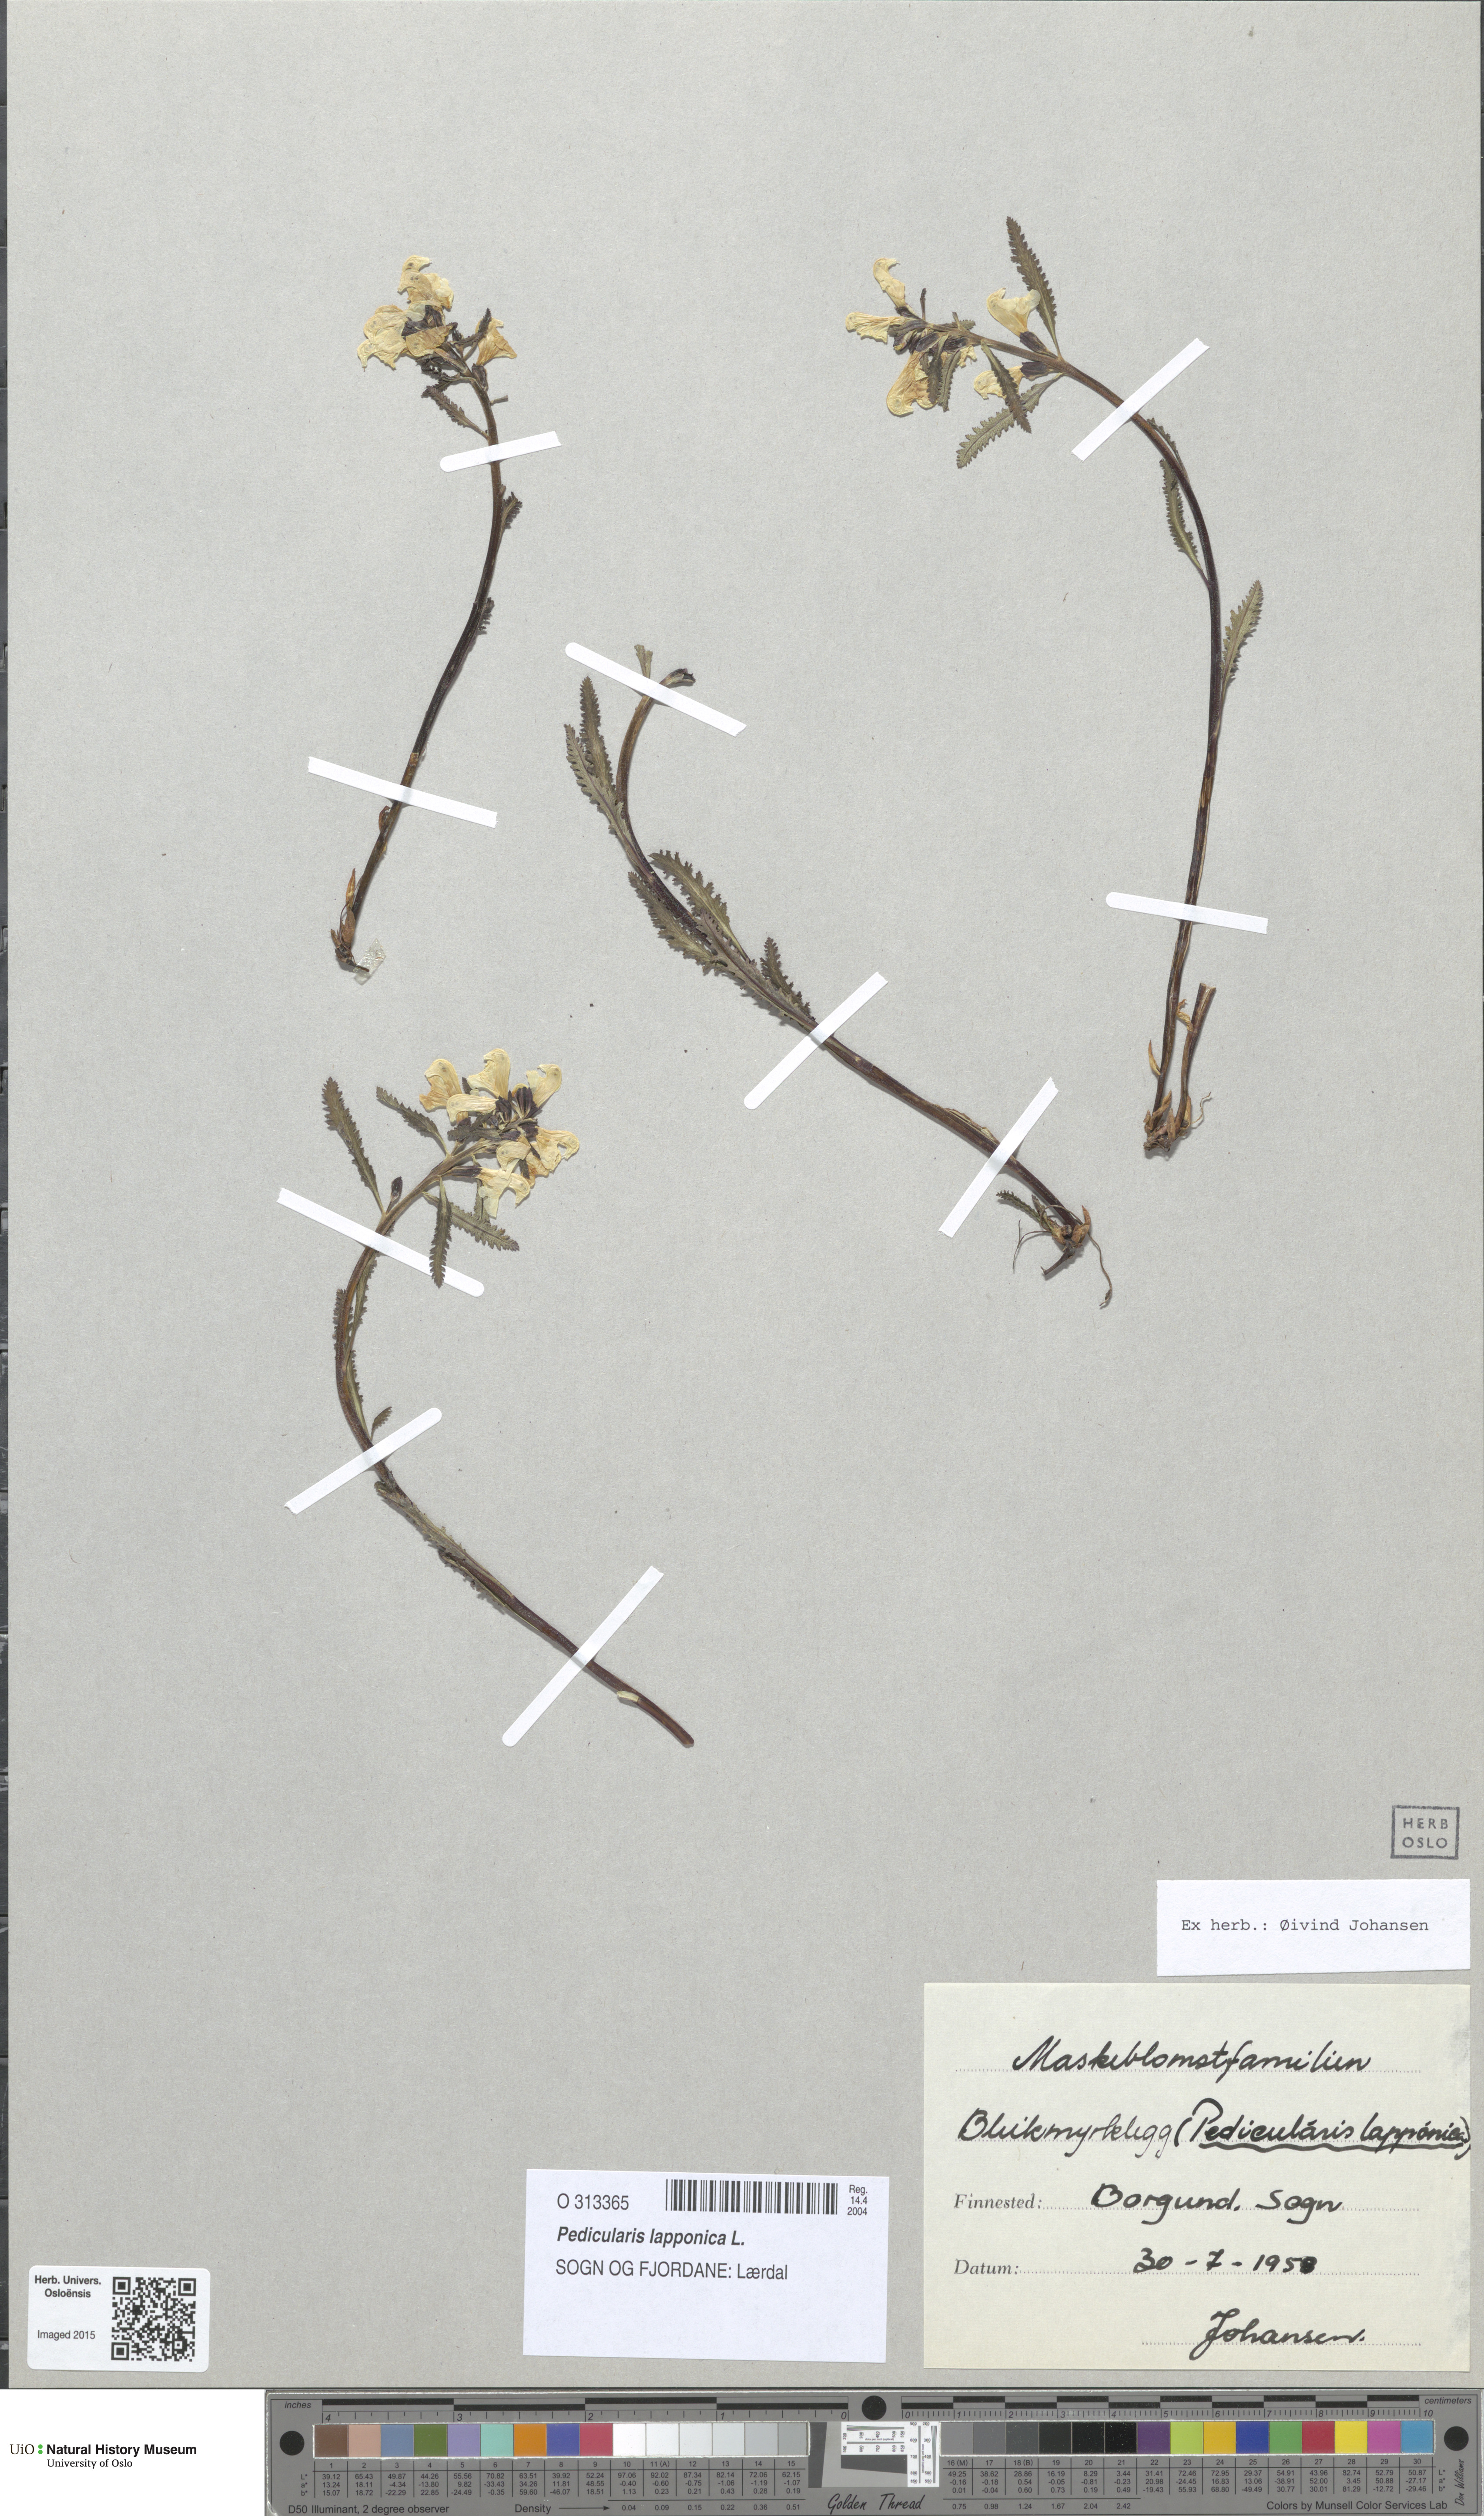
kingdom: Plantae
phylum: Tracheophyta
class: Magnoliopsida
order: Lamiales
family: Orobanchaceae
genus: Pedicularis
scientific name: Pedicularis lapponica
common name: Lapland lousewort
